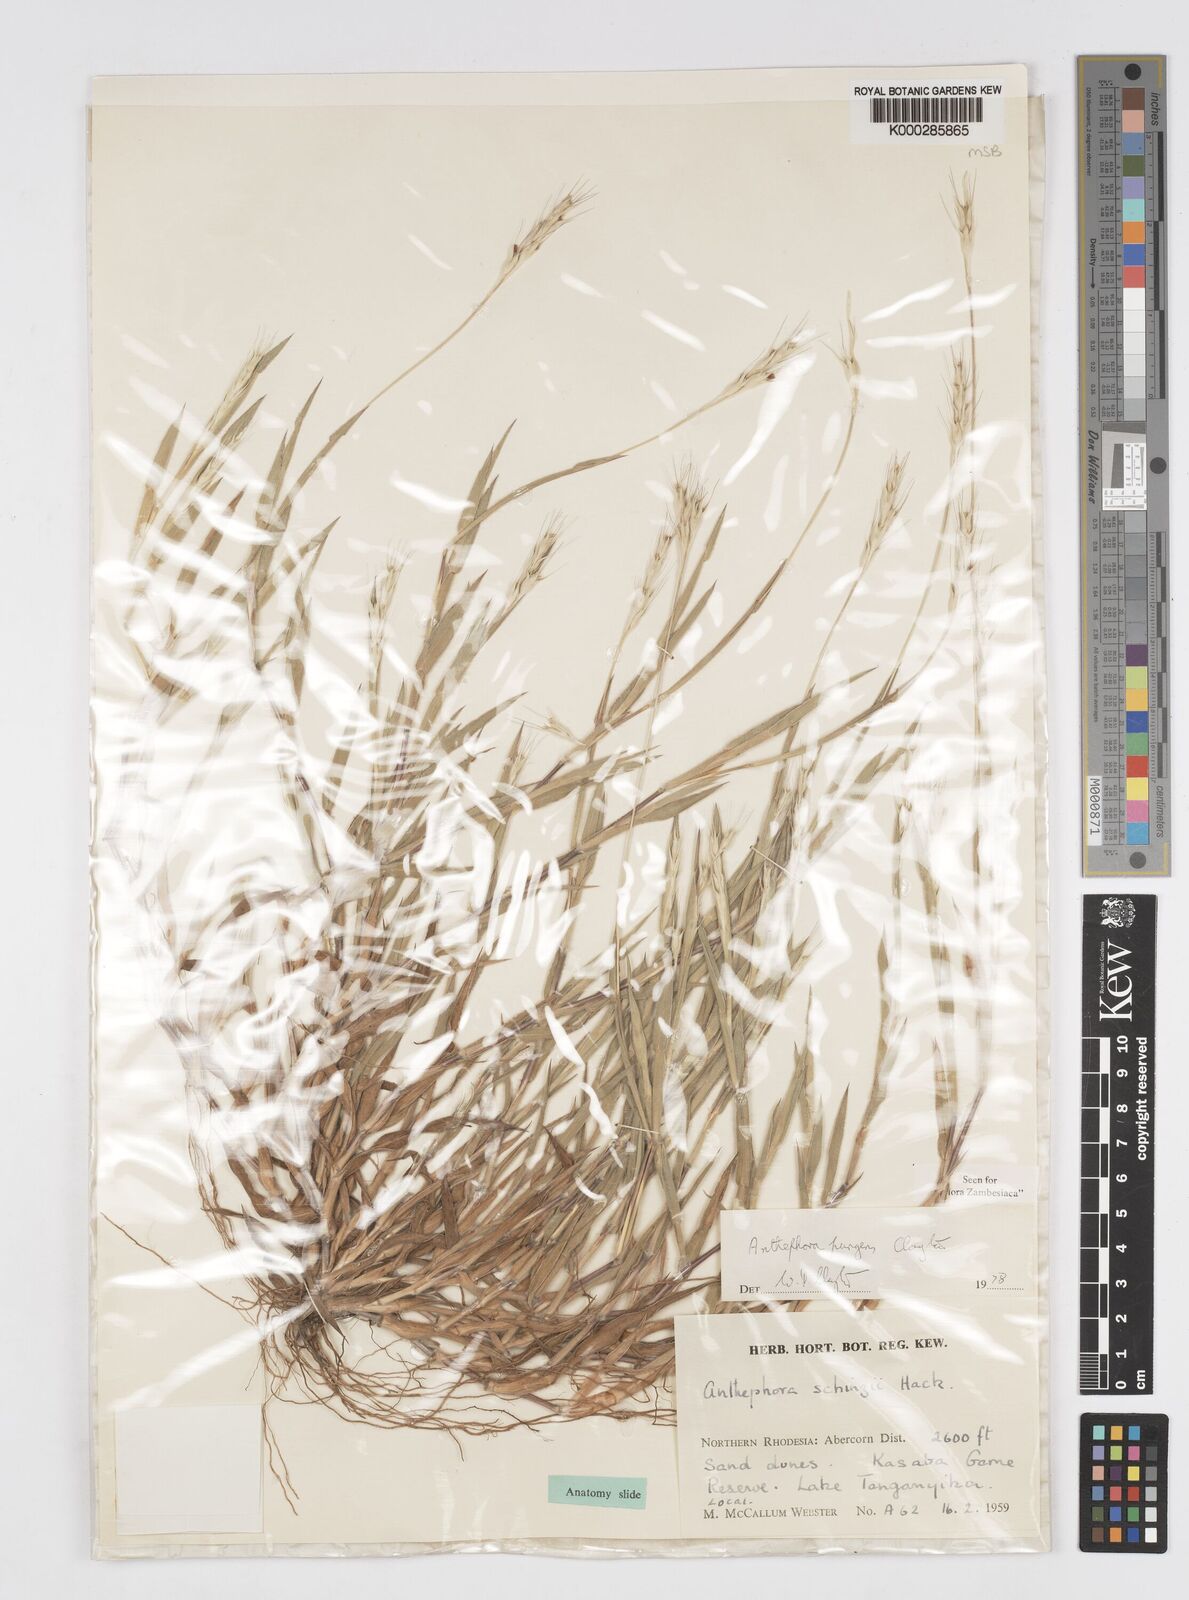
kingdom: Plantae
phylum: Tracheophyta
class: Liliopsida
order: Poales
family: Poaceae
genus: Anthephora
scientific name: Anthephora pungens
